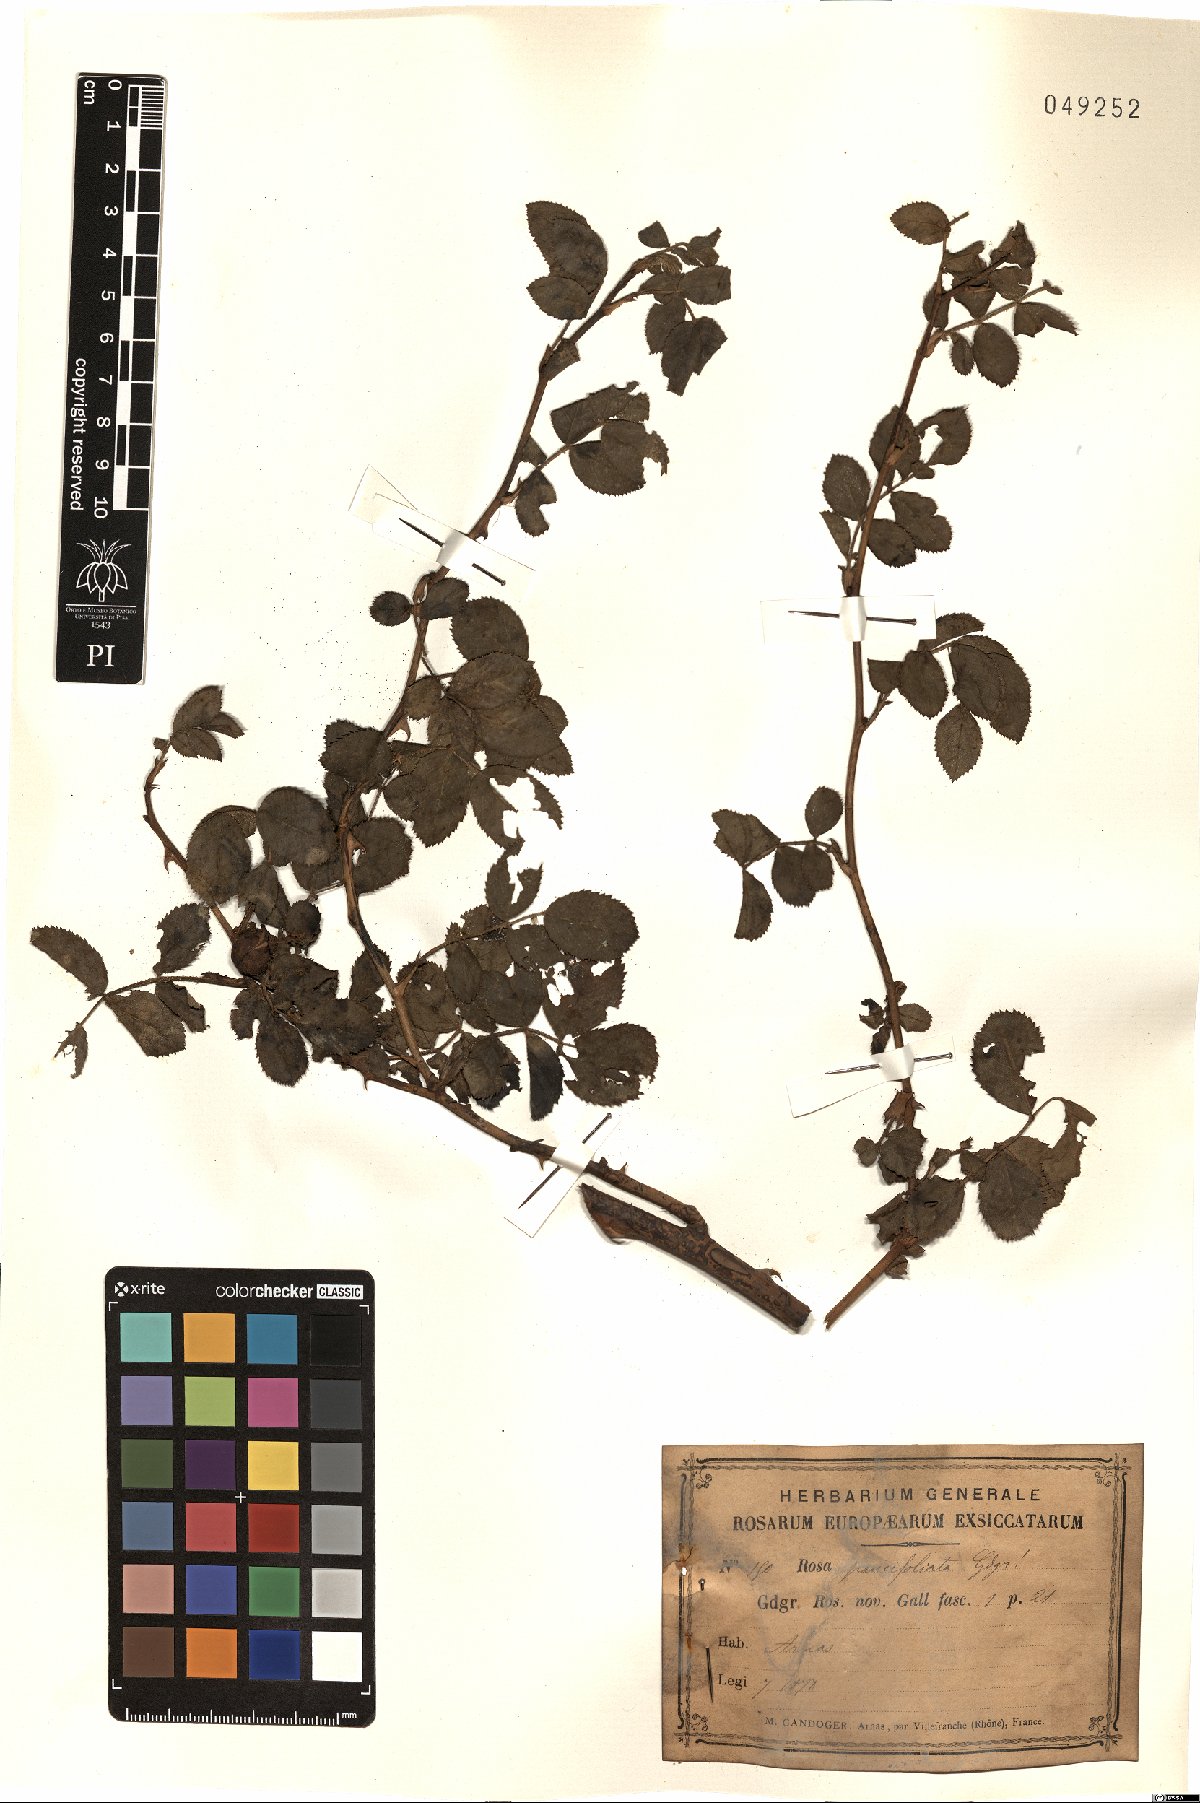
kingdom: Plantae
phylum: Tracheophyta
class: Magnoliopsida
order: Rosales
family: Rosaceae
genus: Rosa
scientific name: Rosa paucifoliata
